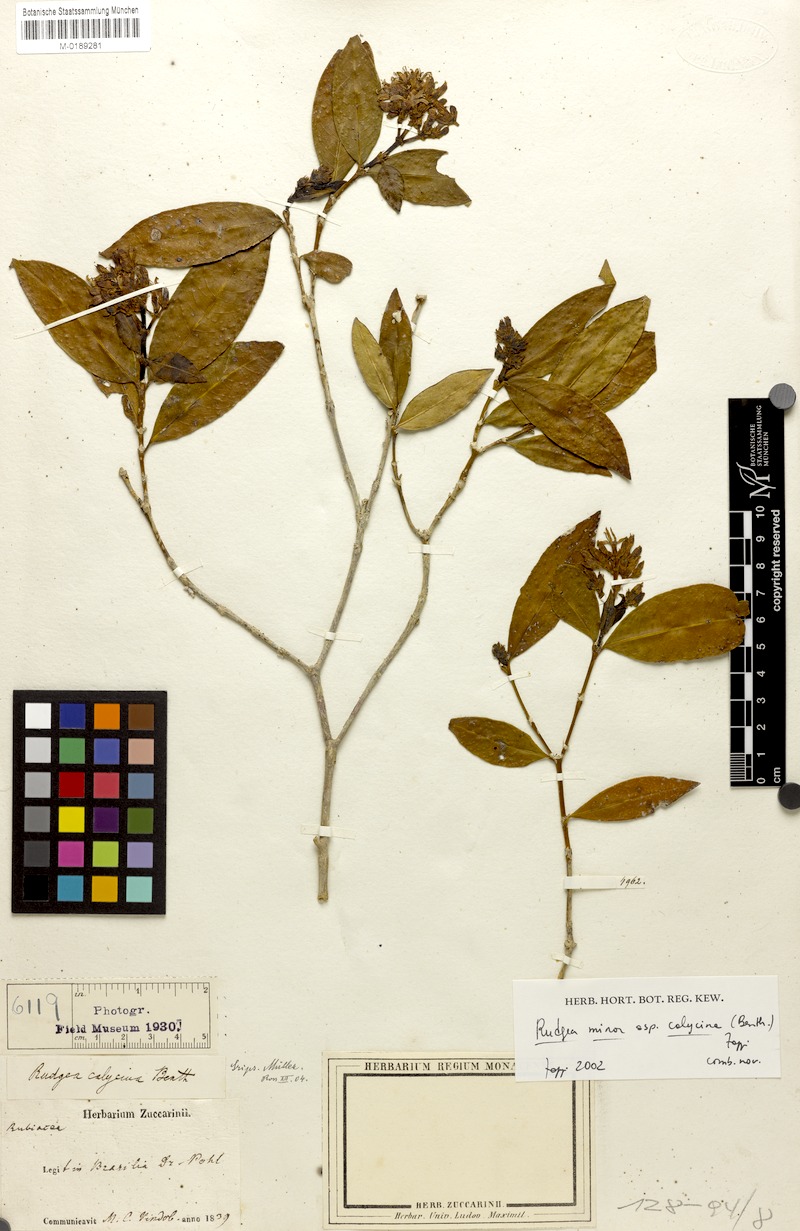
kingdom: Plantae
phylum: Tracheophyta
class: Magnoliopsida
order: Gentianales
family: Rubiaceae
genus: Rudgea
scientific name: Rudgea minor
